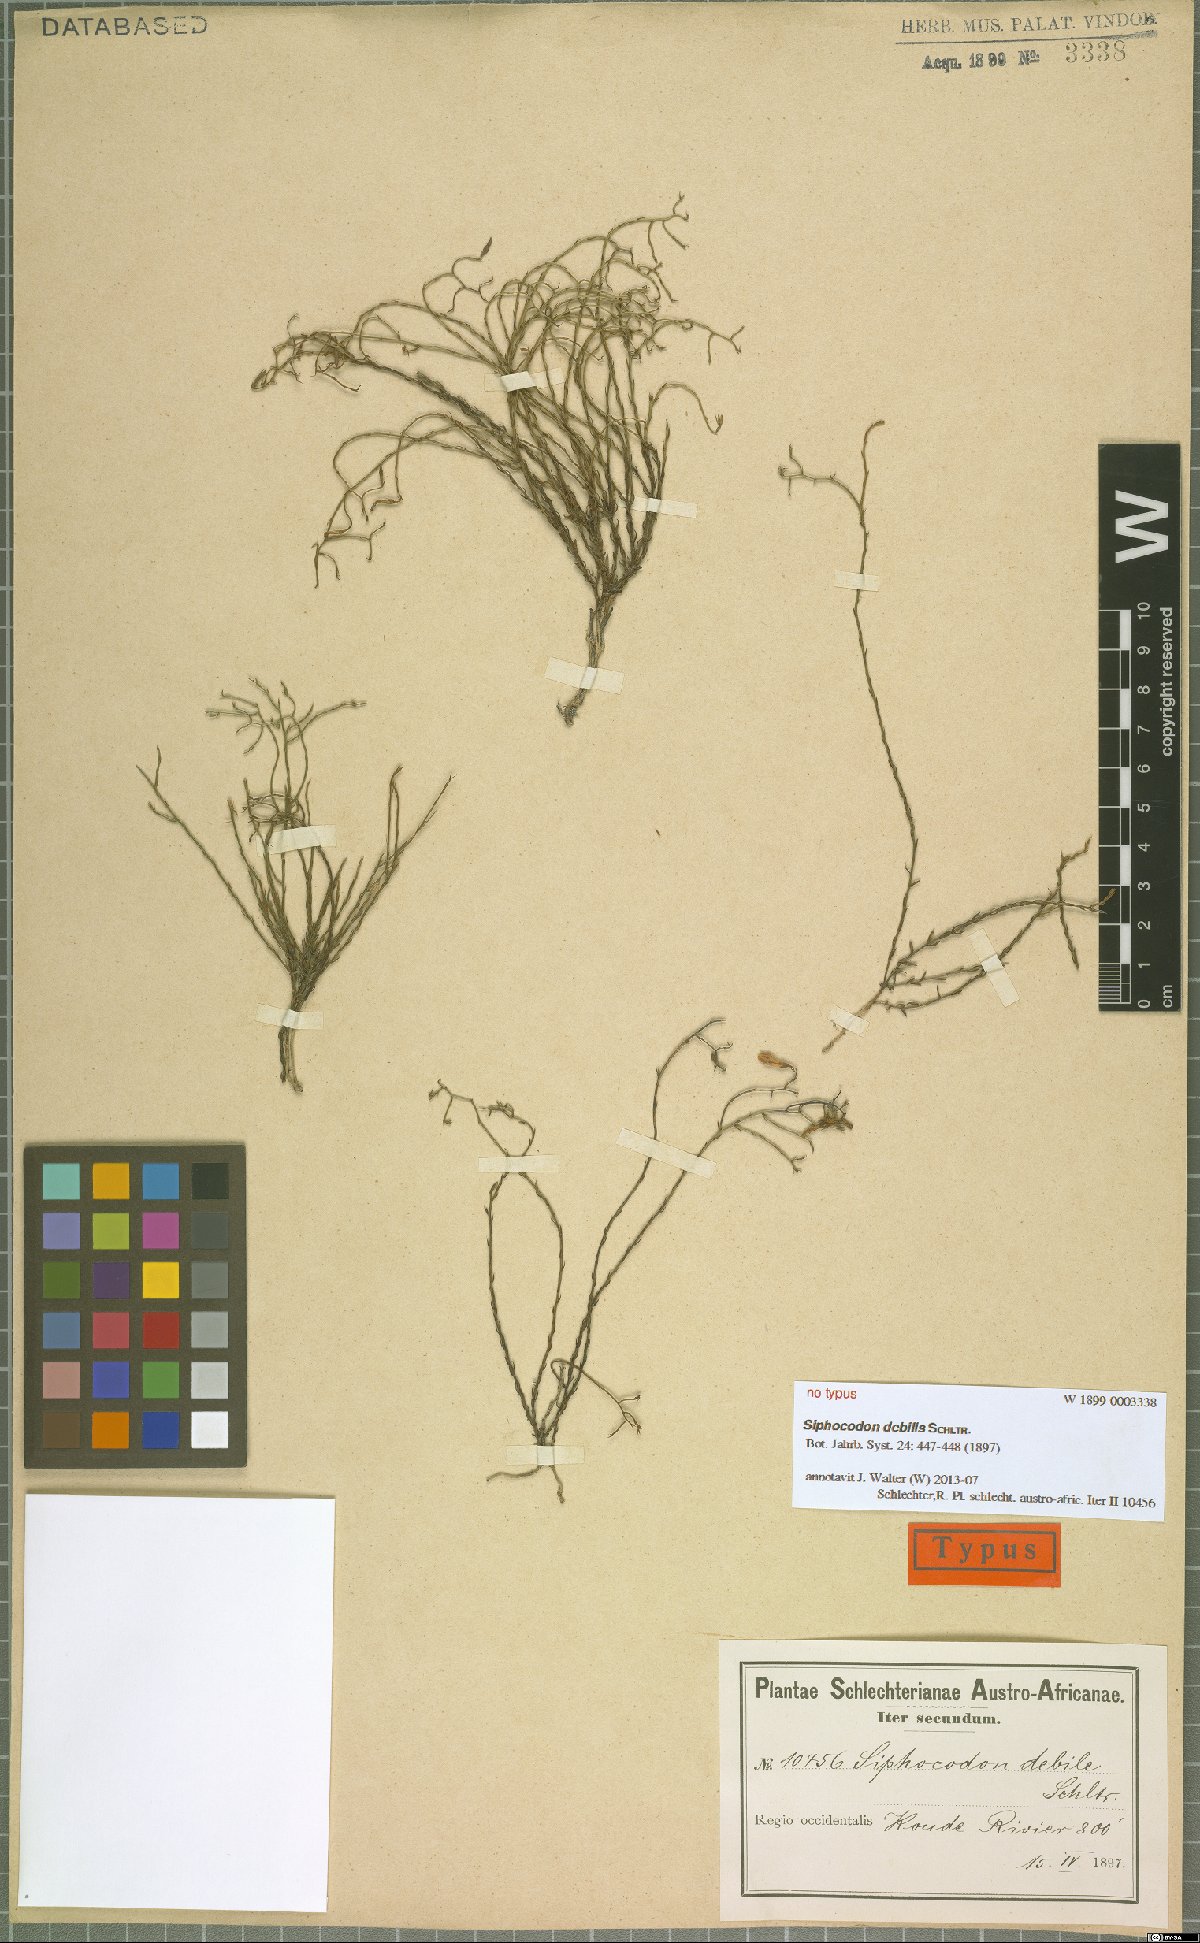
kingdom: Plantae
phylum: Tracheophyta
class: Magnoliopsida
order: Asterales
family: Campanulaceae
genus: Siphocodon
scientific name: Siphocodon debilis
